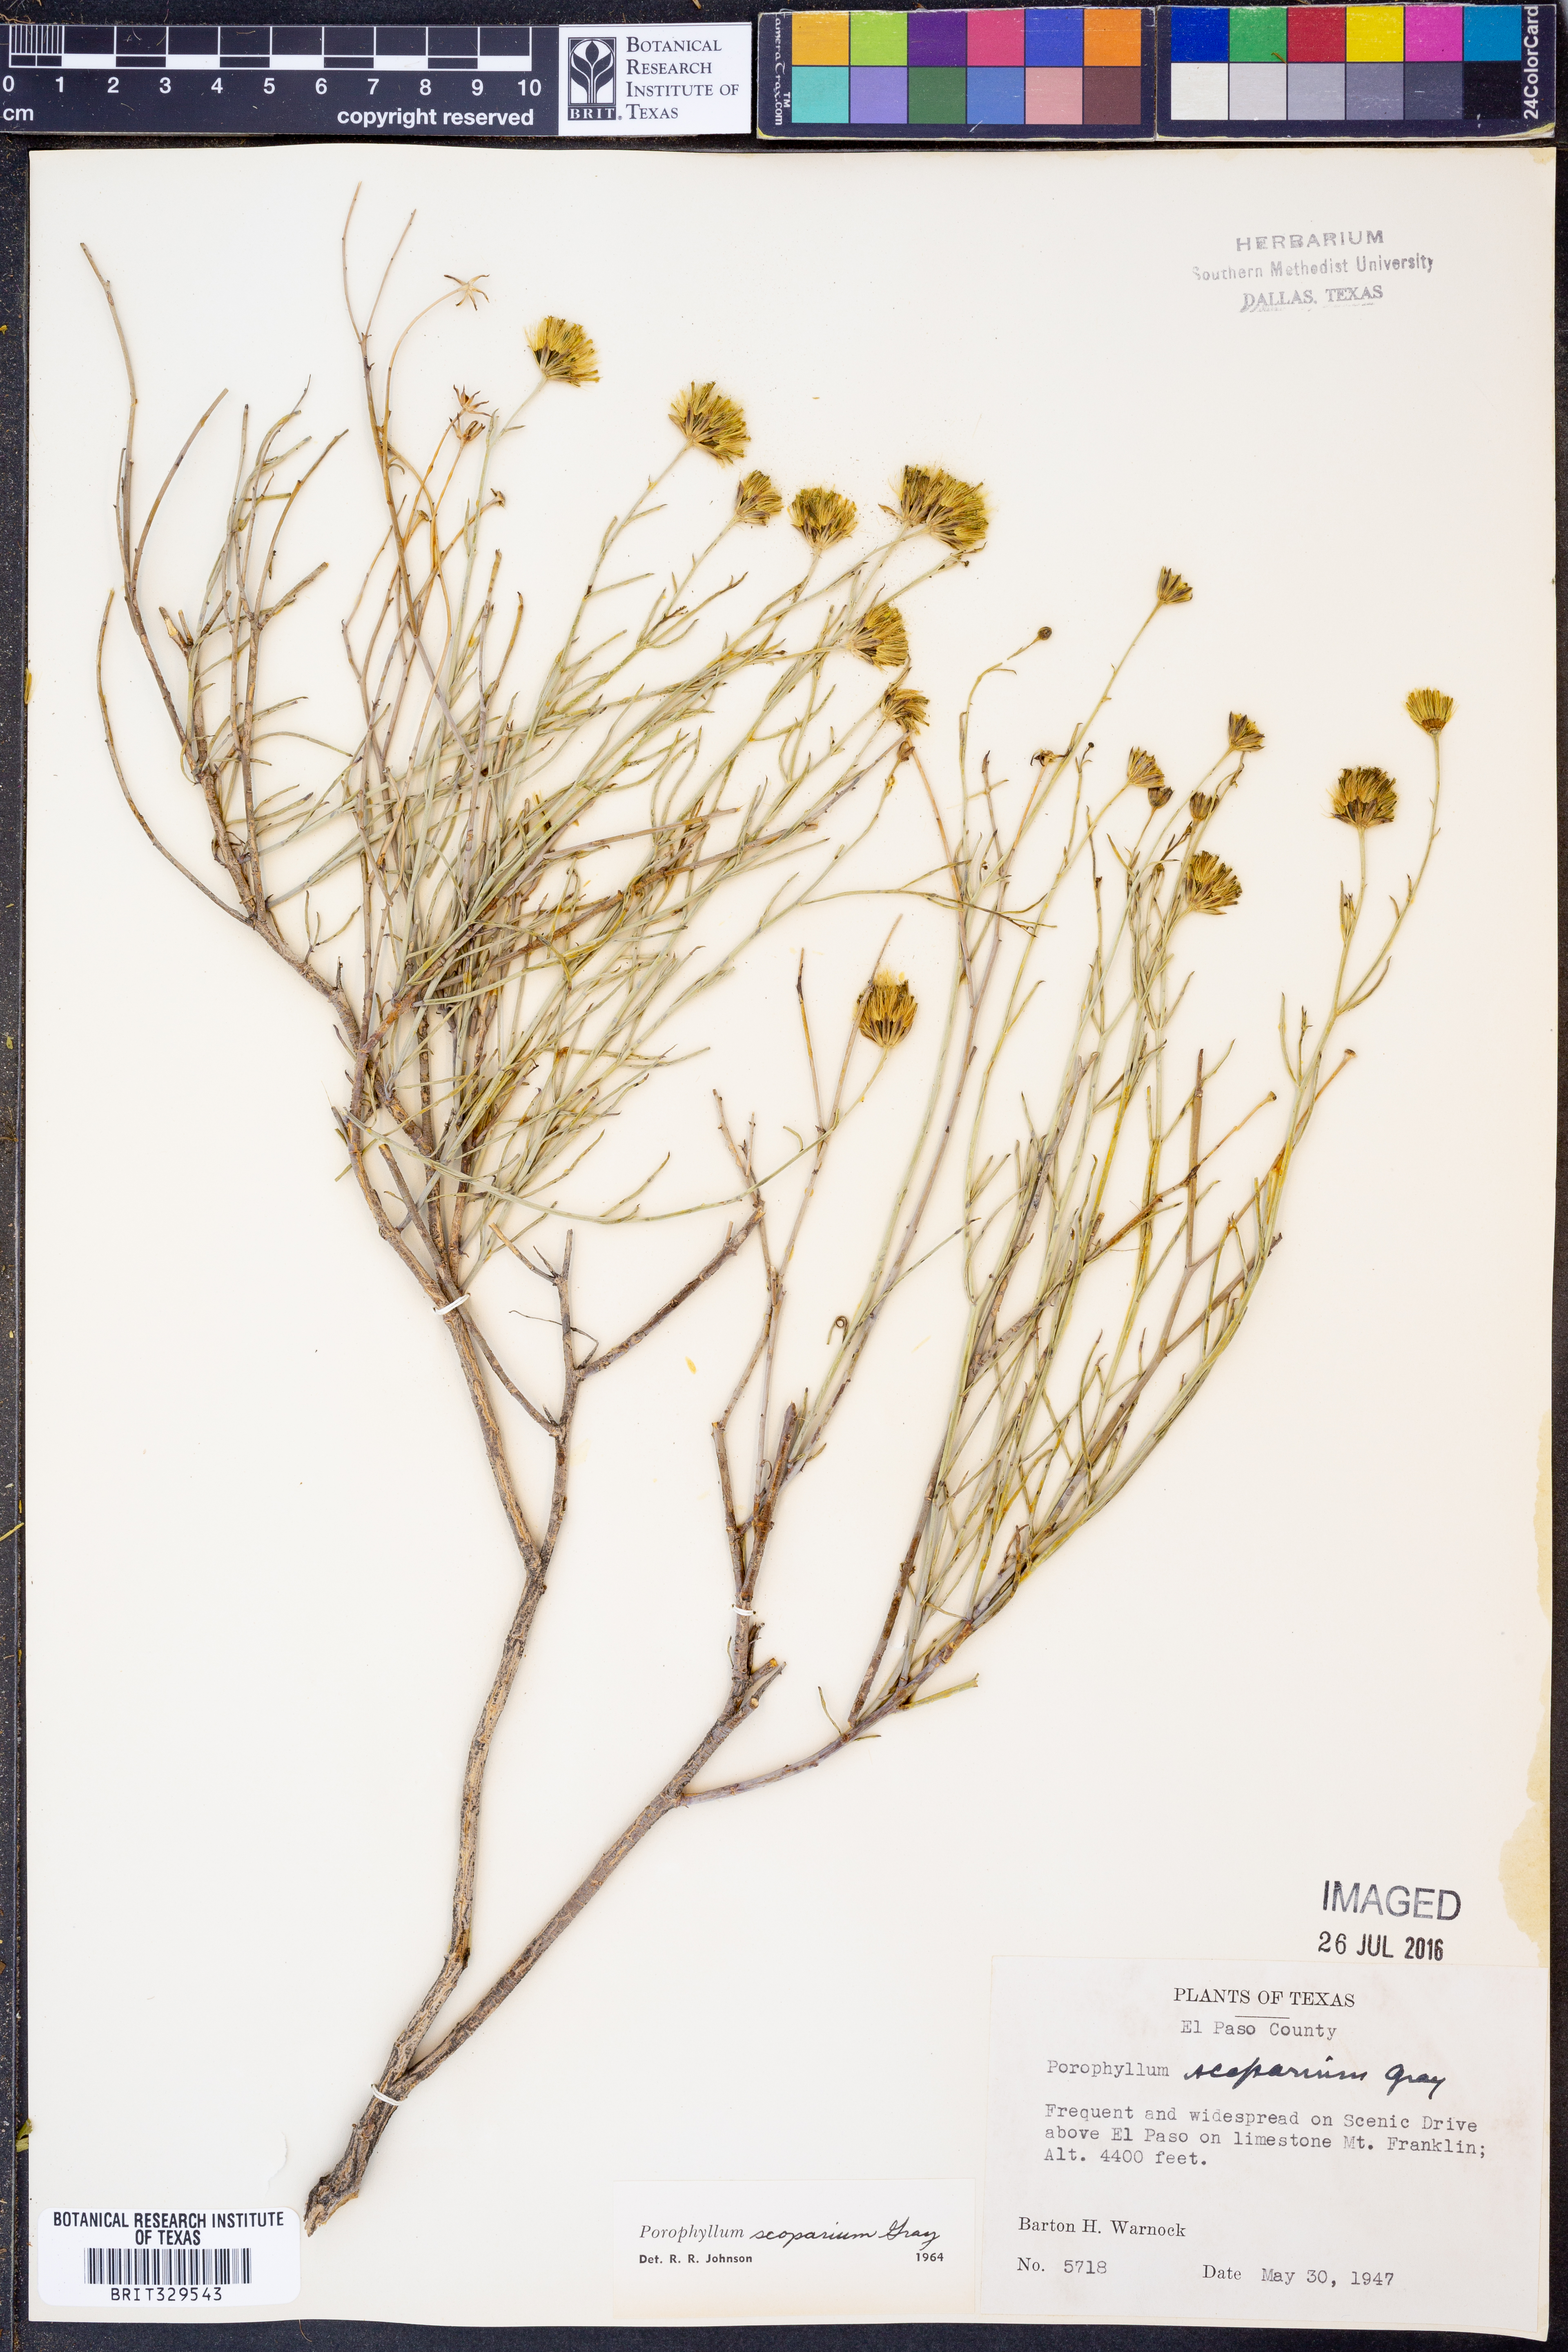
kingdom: Plantae
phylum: Tracheophyta
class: Magnoliopsida
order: Asterales
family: Asteraceae
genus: Porophyllum
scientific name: Porophyllum scoparium
